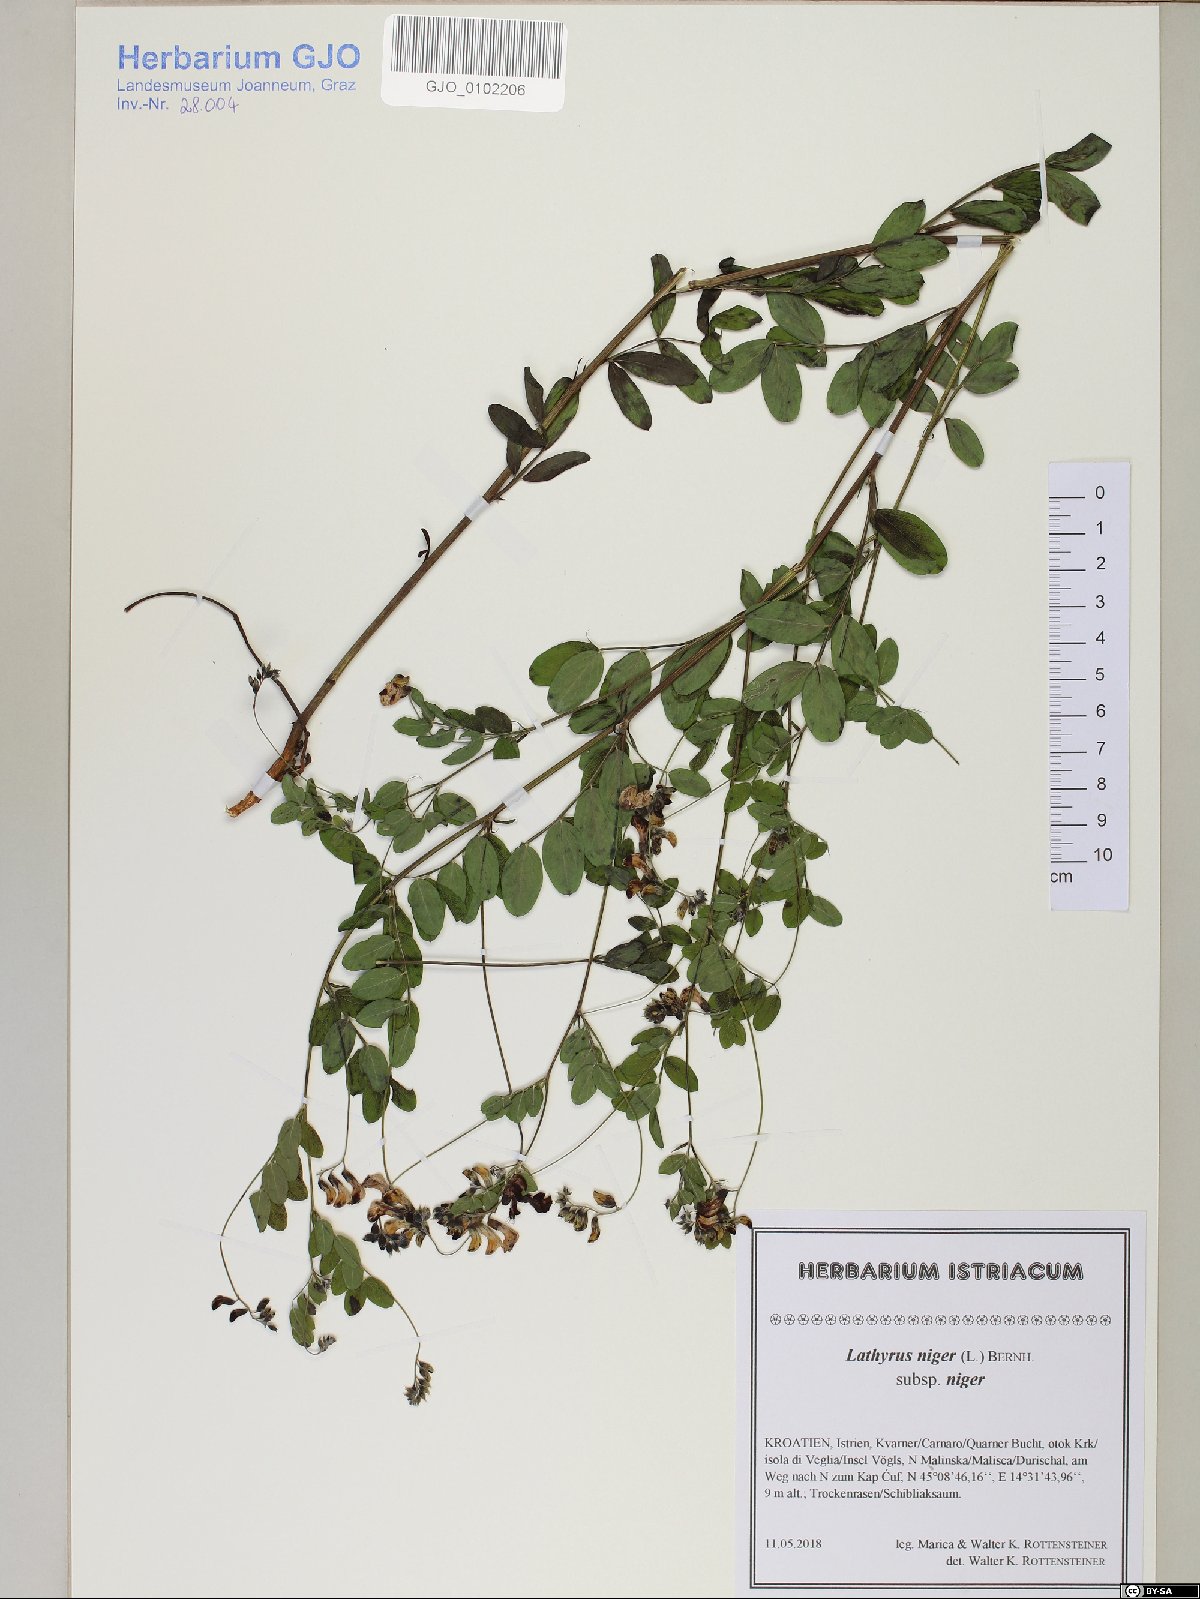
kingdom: Plantae
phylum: Tracheophyta
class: Magnoliopsida
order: Fabales
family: Fabaceae
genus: Lathyrus
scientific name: Lathyrus niger
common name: Black pea
